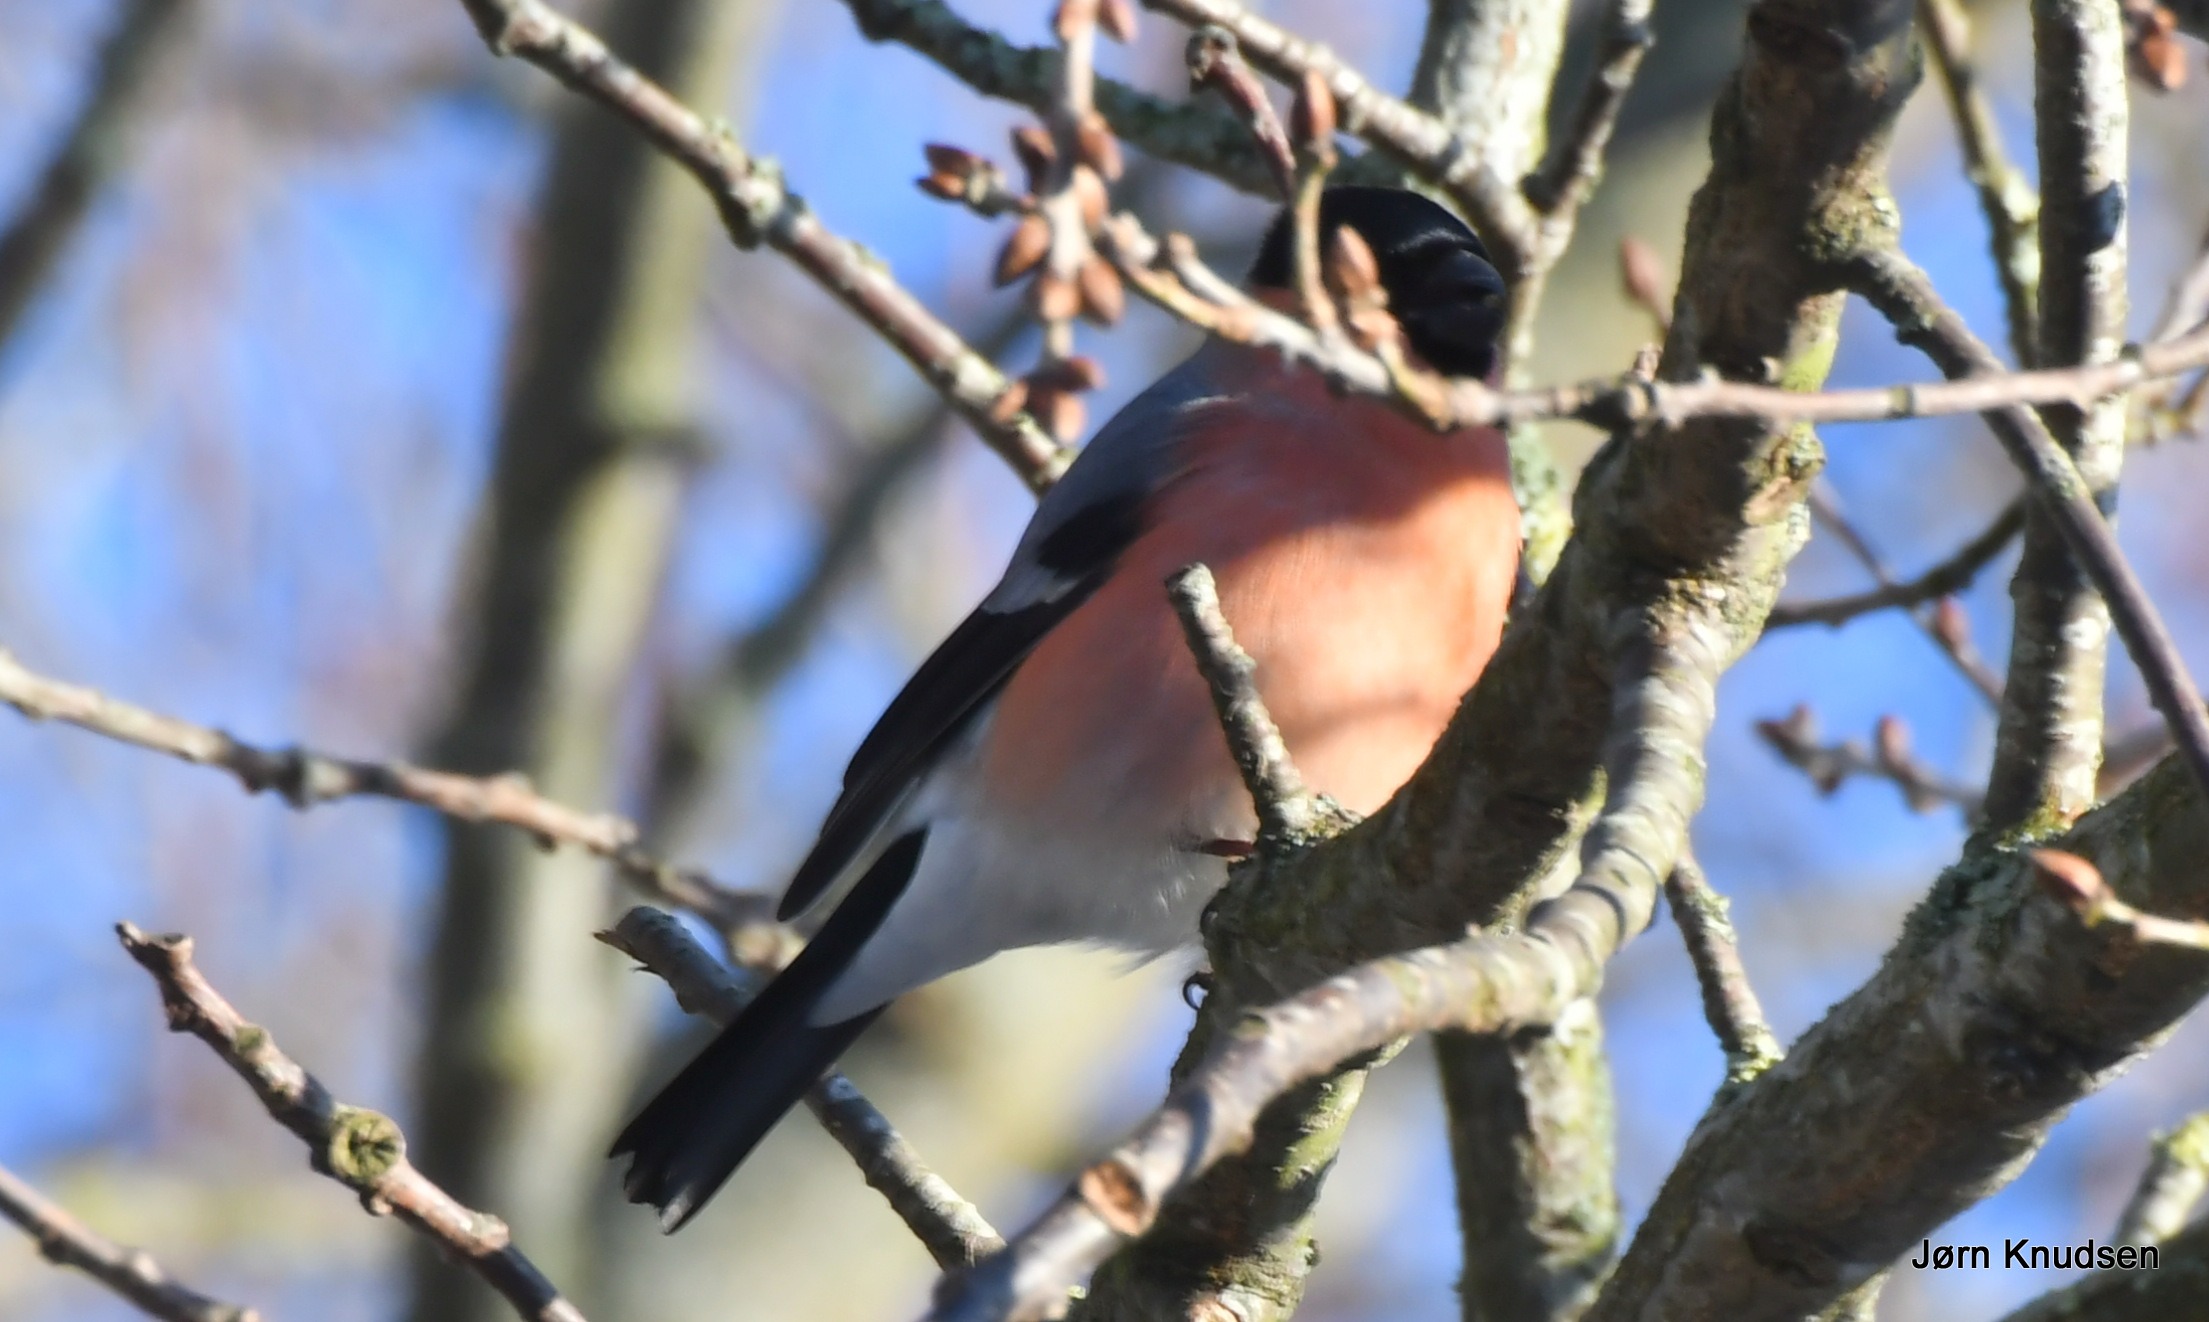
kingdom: Animalia
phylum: Chordata
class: Aves
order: Passeriformes
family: Fringillidae
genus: Pyrrhula
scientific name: Pyrrhula pyrrhula
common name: Dompap
